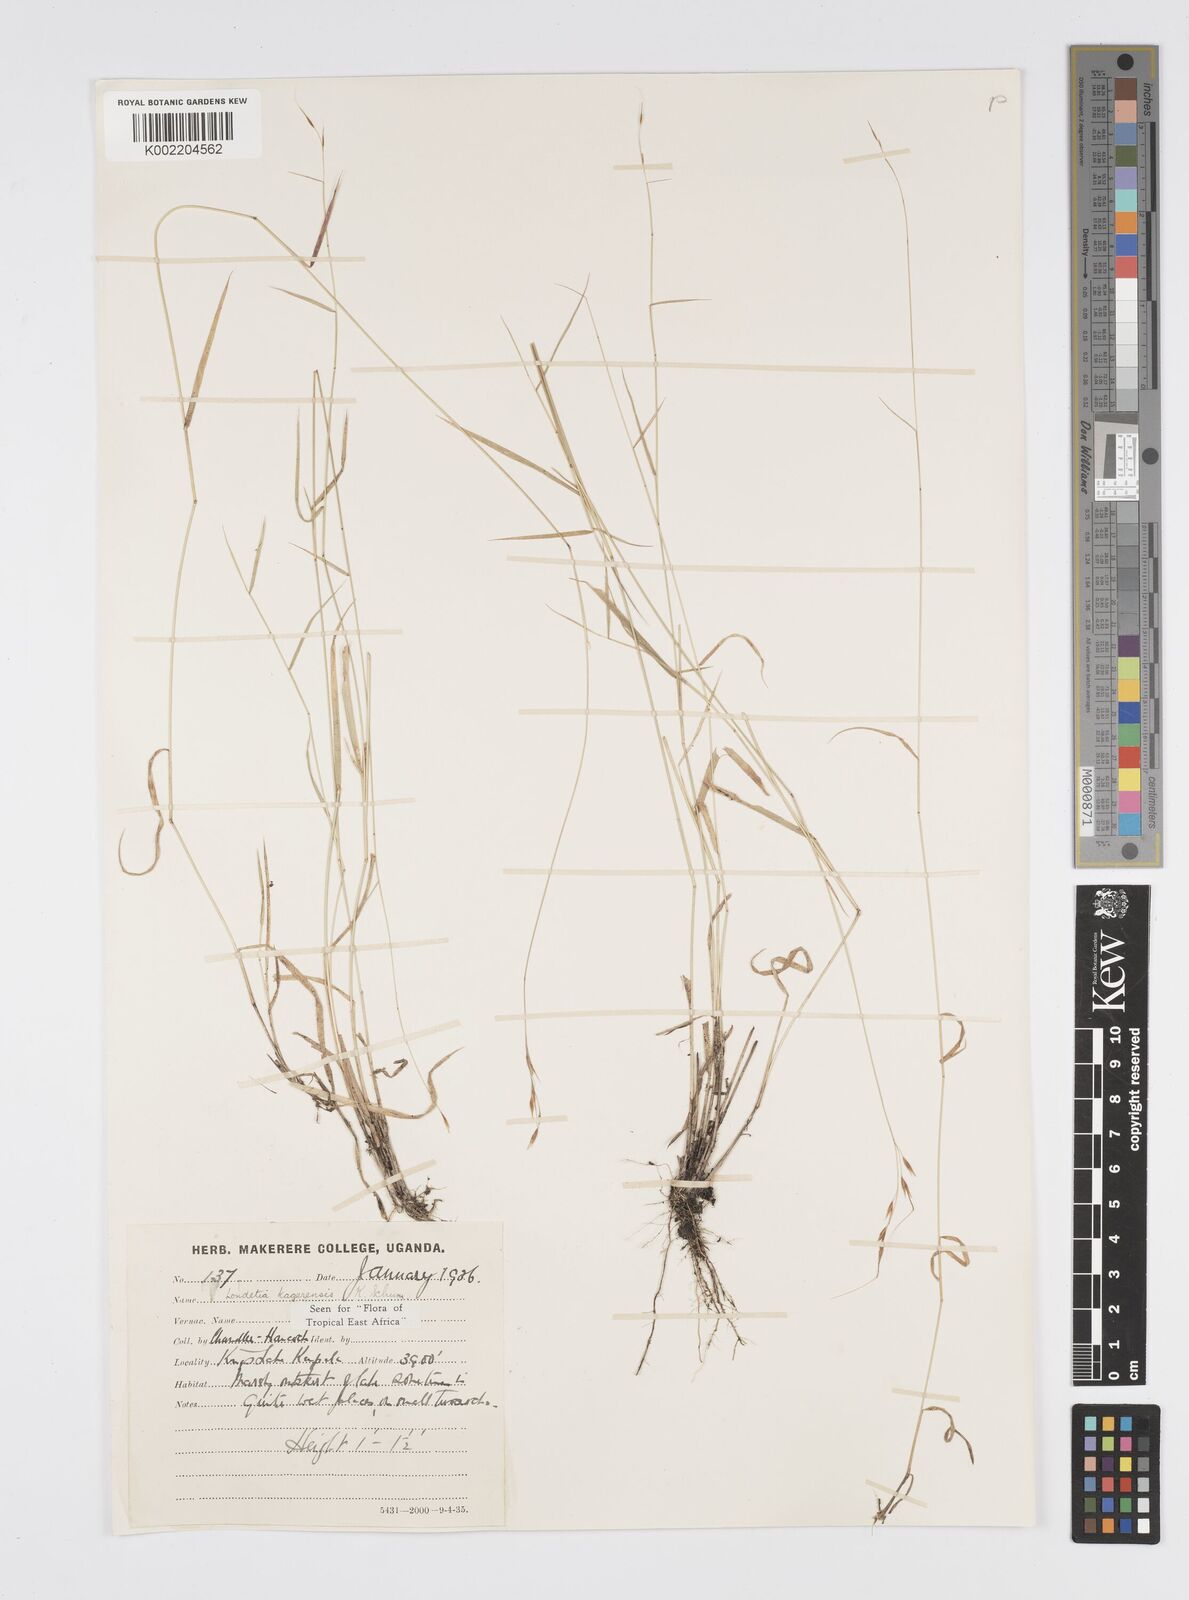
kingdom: Plantae
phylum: Tracheophyta
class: Liliopsida
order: Poales
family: Poaceae
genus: Loudetia
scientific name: Loudetia kagerensis
